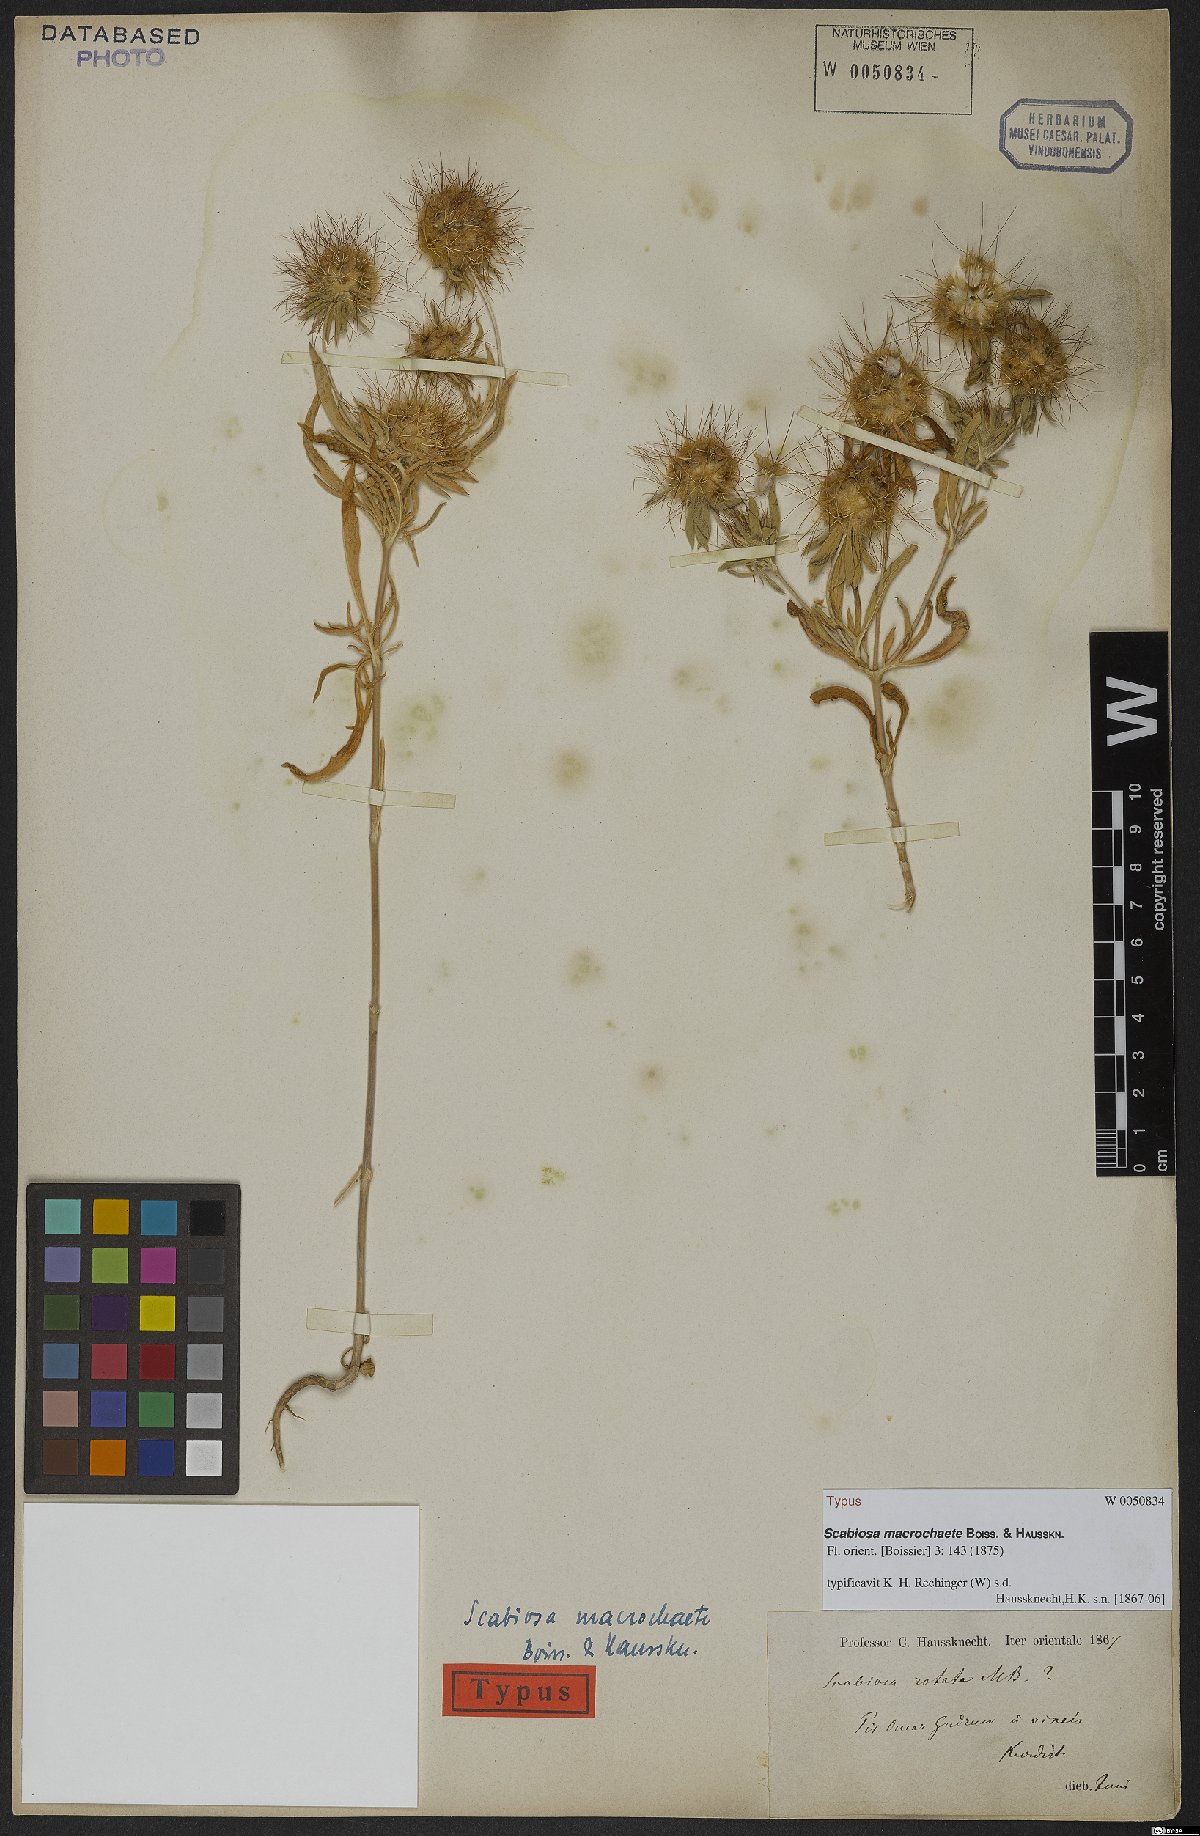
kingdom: Plantae
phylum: Tracheophyta
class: Magnoliopsida
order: Dipsacales
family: Caprifoliaceae
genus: Lomelosia
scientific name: Lomelosia macrochaete
